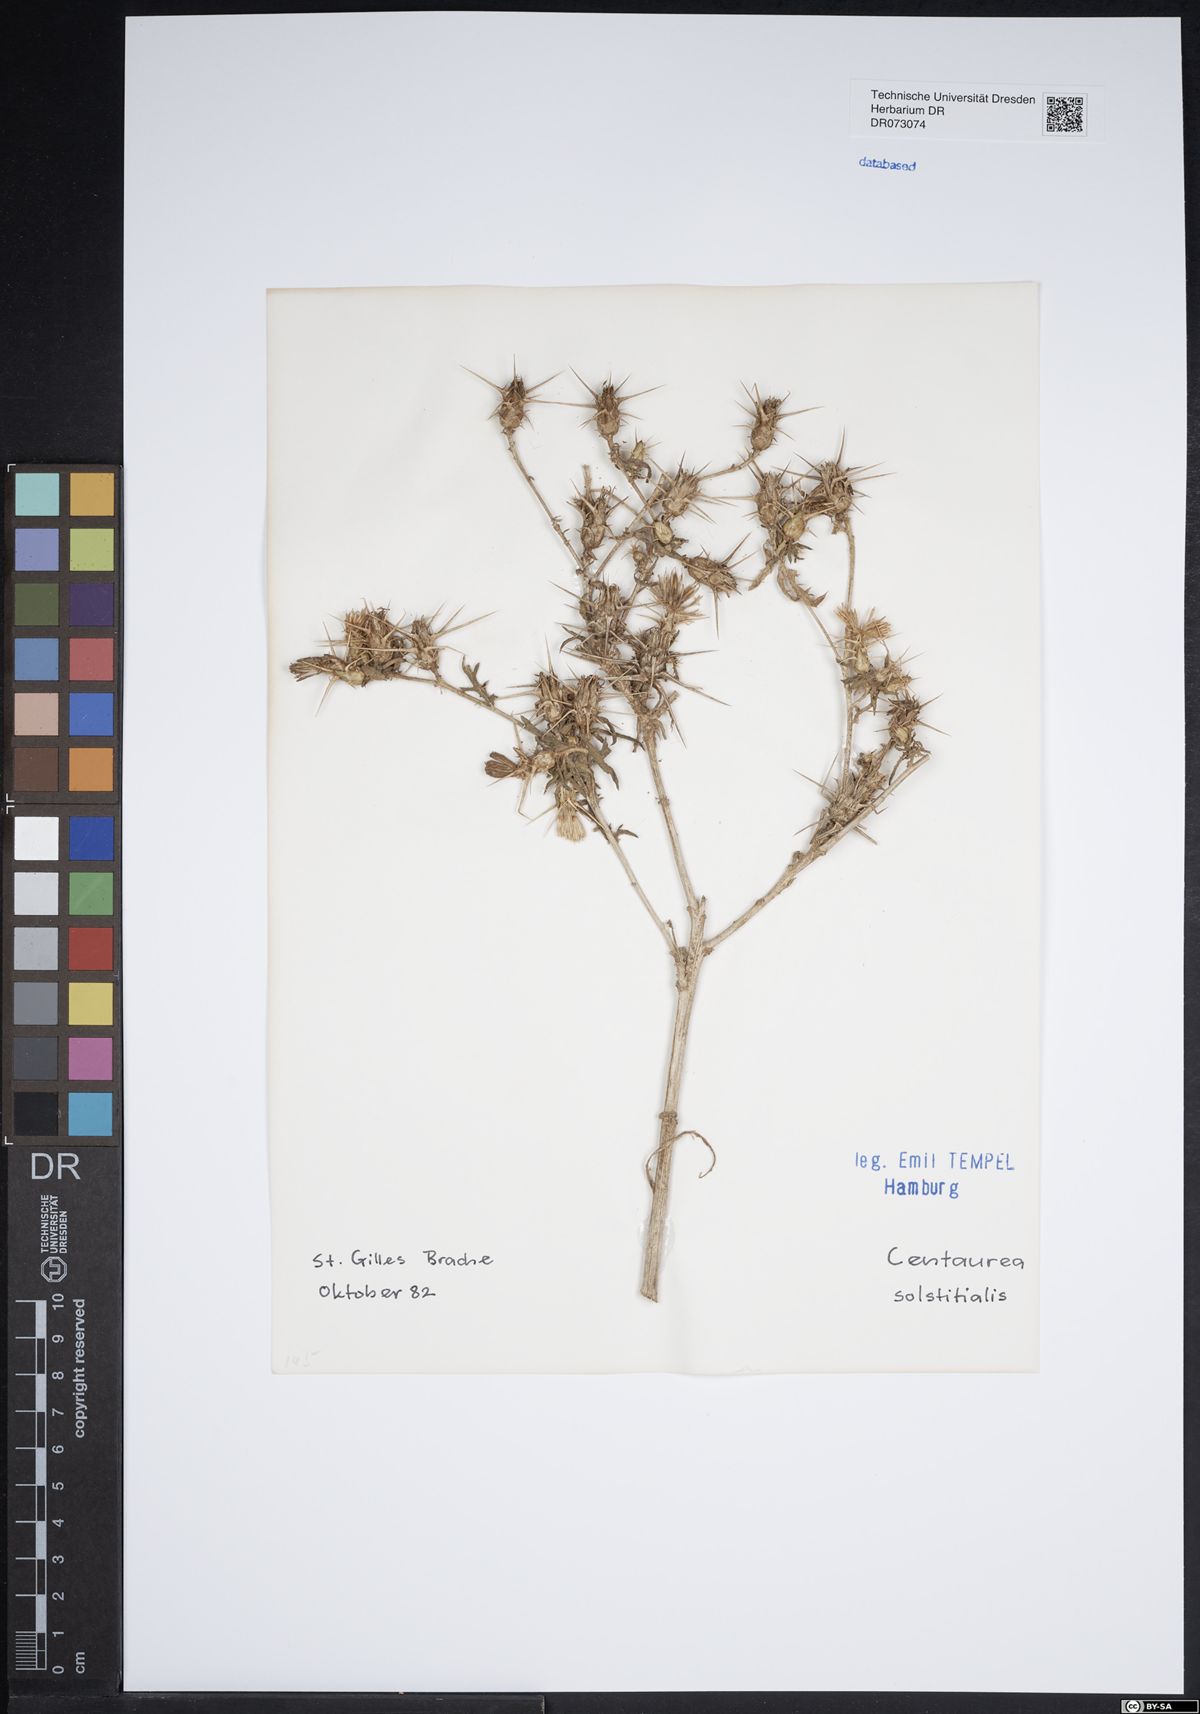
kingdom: Plantae
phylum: Tracheophyta
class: Magnoliopsida
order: Asterales
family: Asteraceae
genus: Leuzea
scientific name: Leuzea conifera
